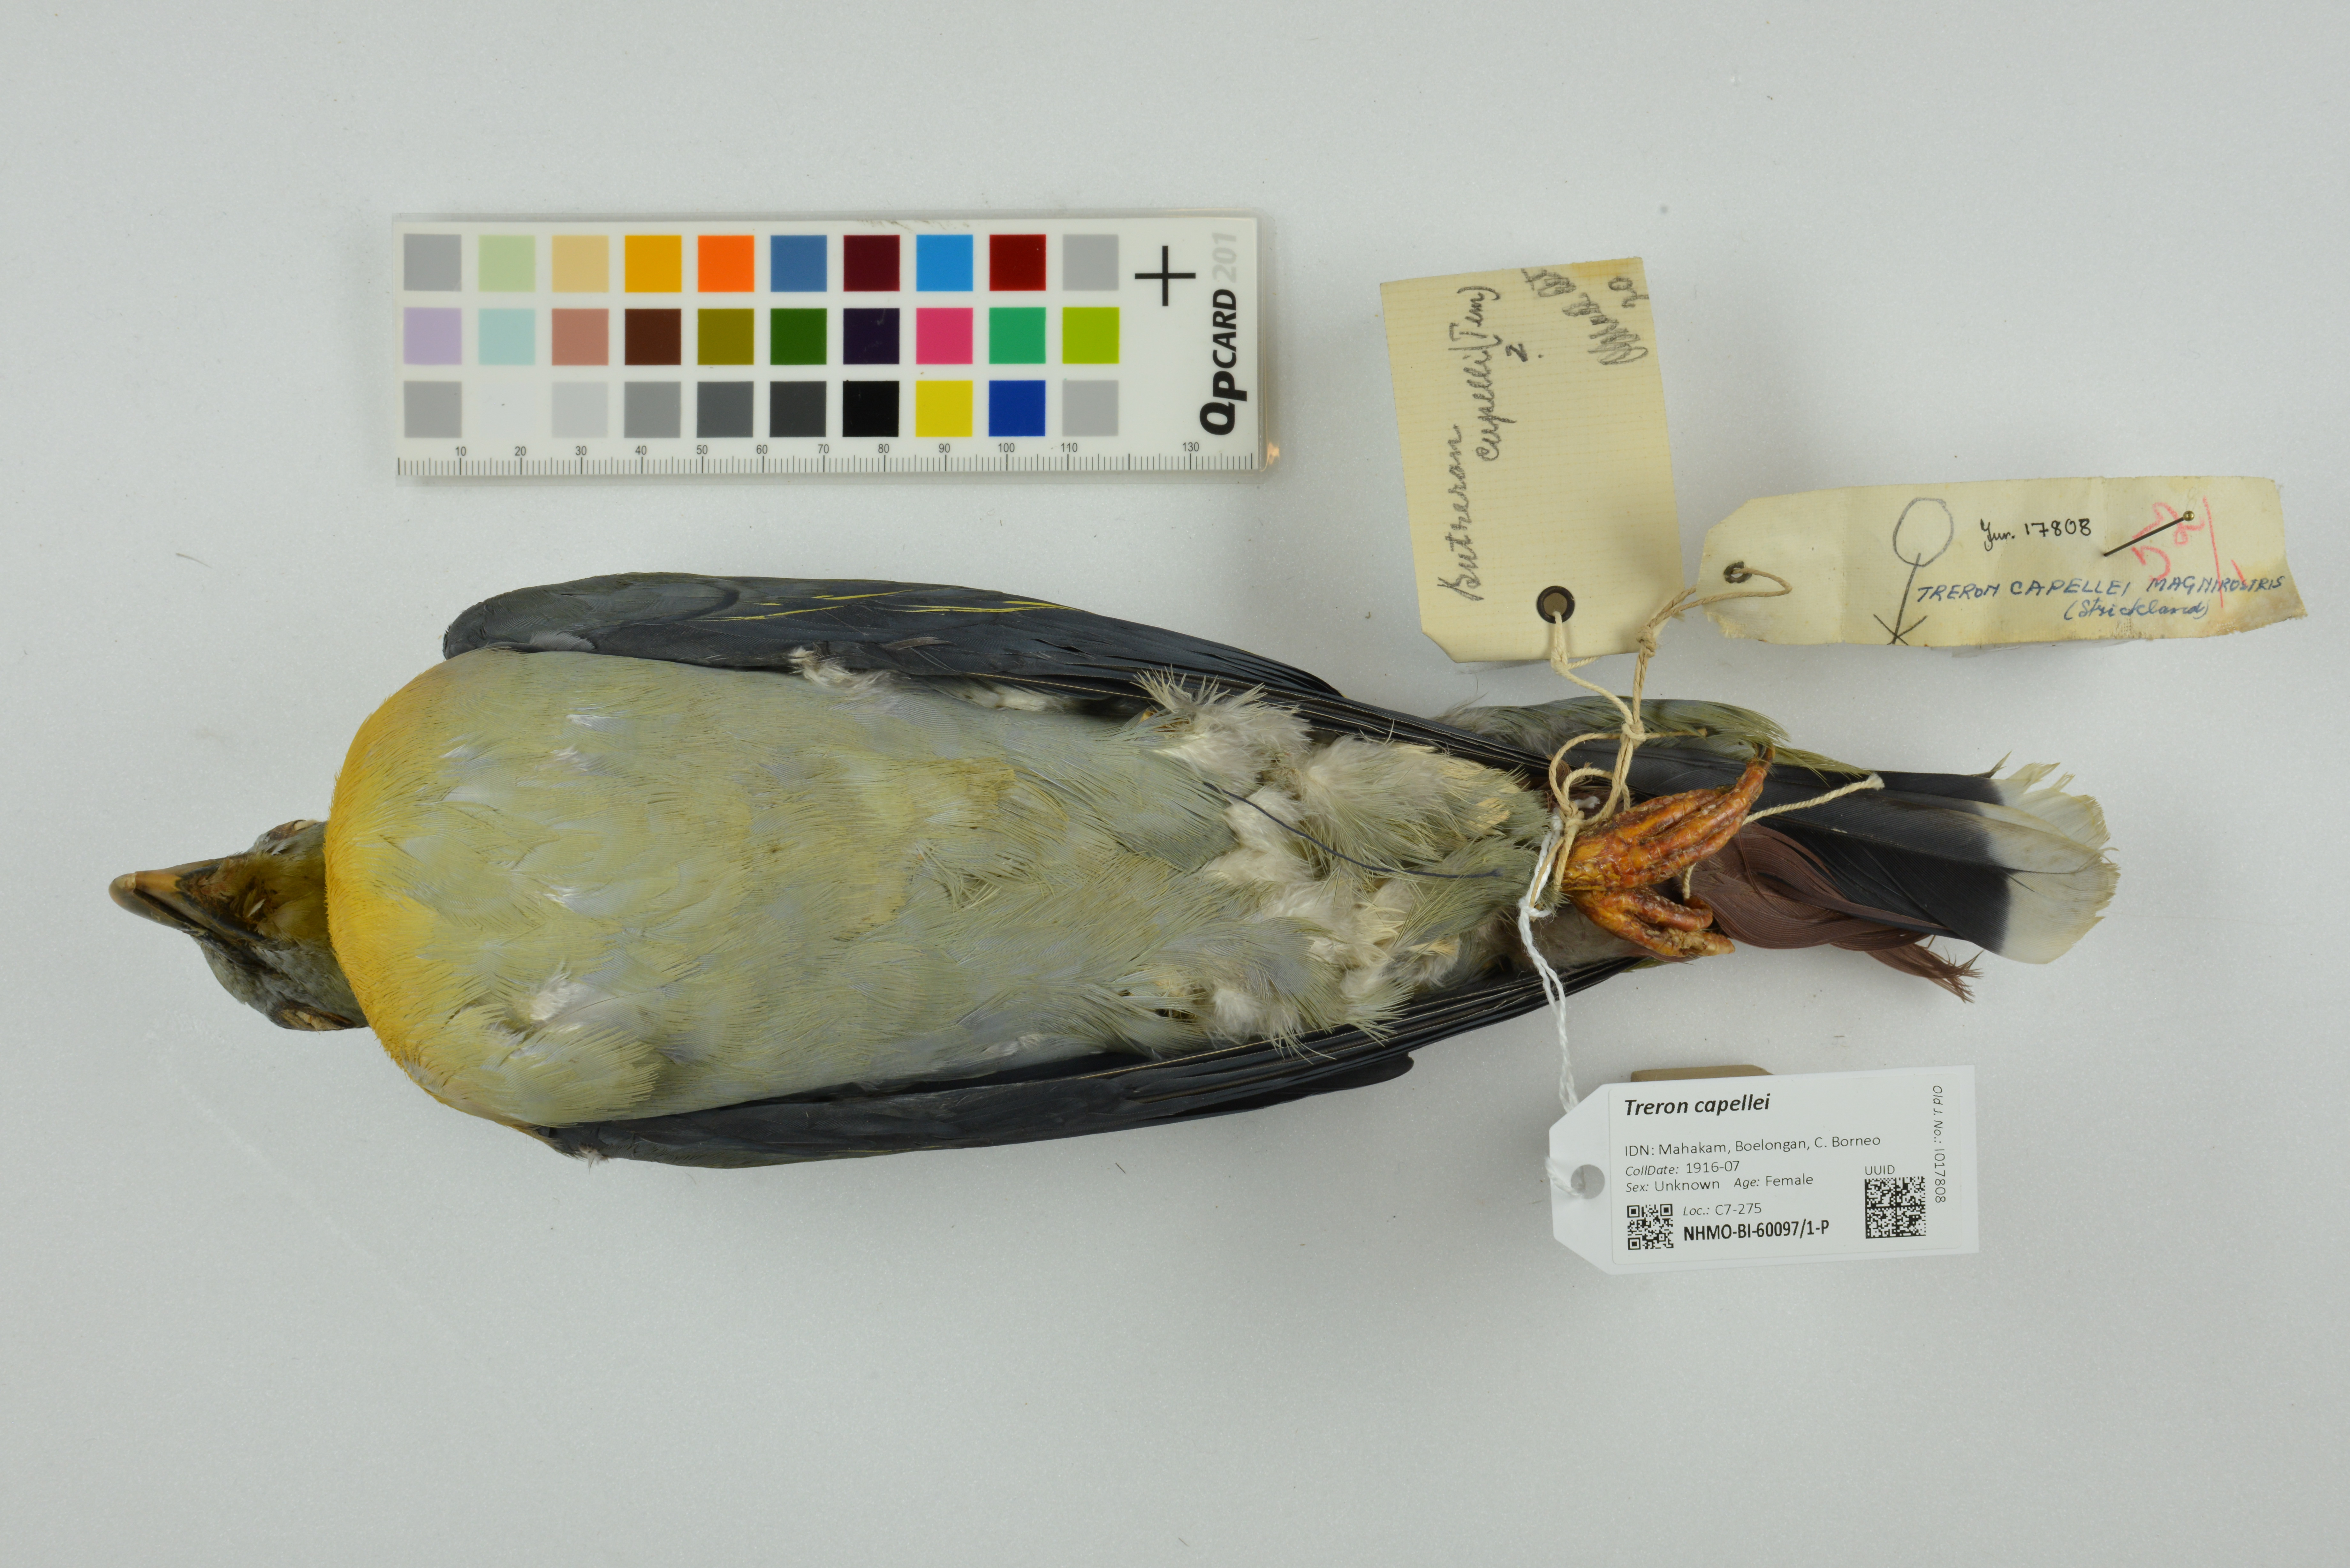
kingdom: Animalia
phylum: Chordata
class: Aves
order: Columbiformes
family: Columbidae
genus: Treron
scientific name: Treron capellei
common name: Large green pigeon
